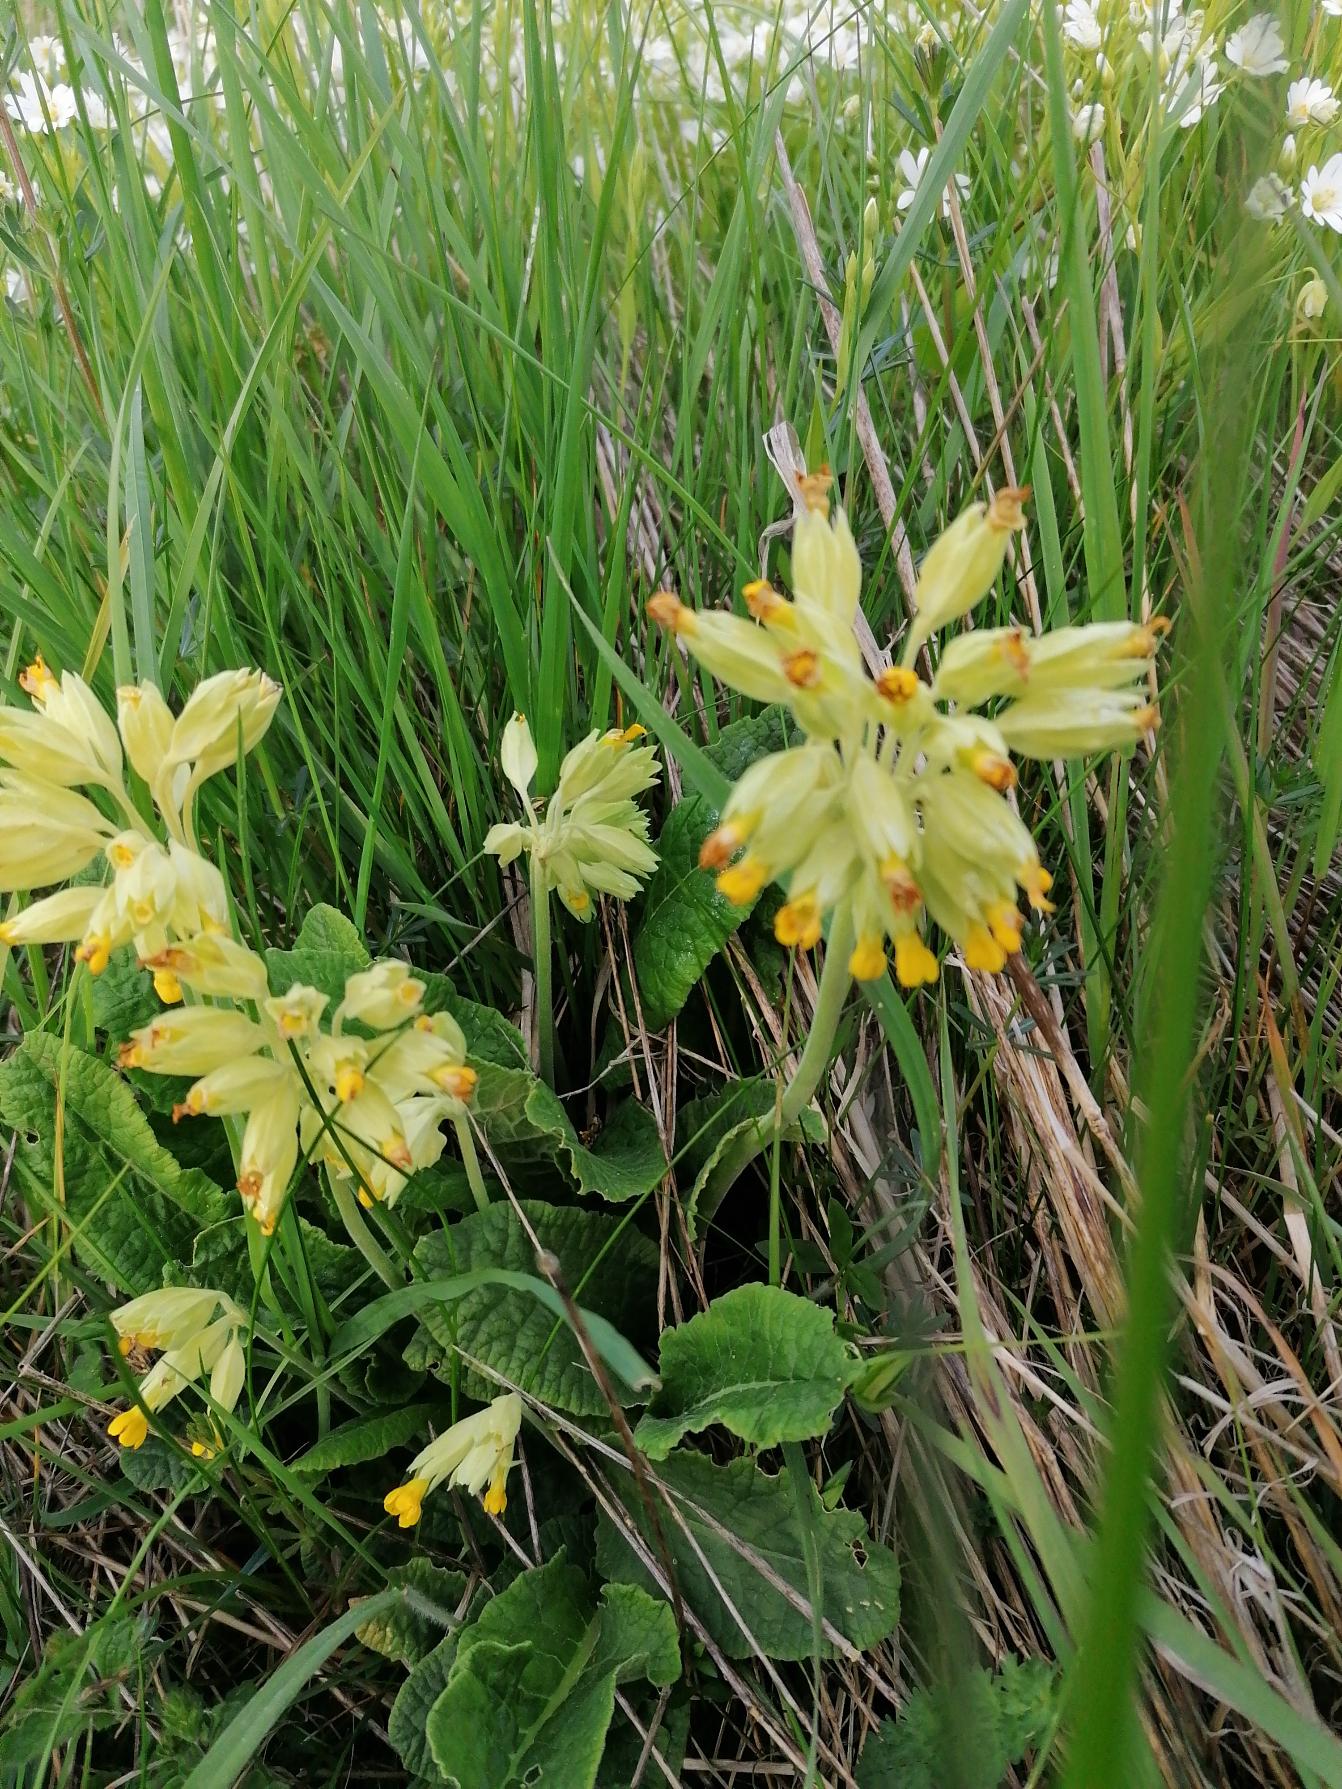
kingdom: Plantae
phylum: Tracheophyta
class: Magnoliopsida
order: Ericales
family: Primulaceae
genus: Primula
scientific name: Primula veris
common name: Hulkravet kodriver
